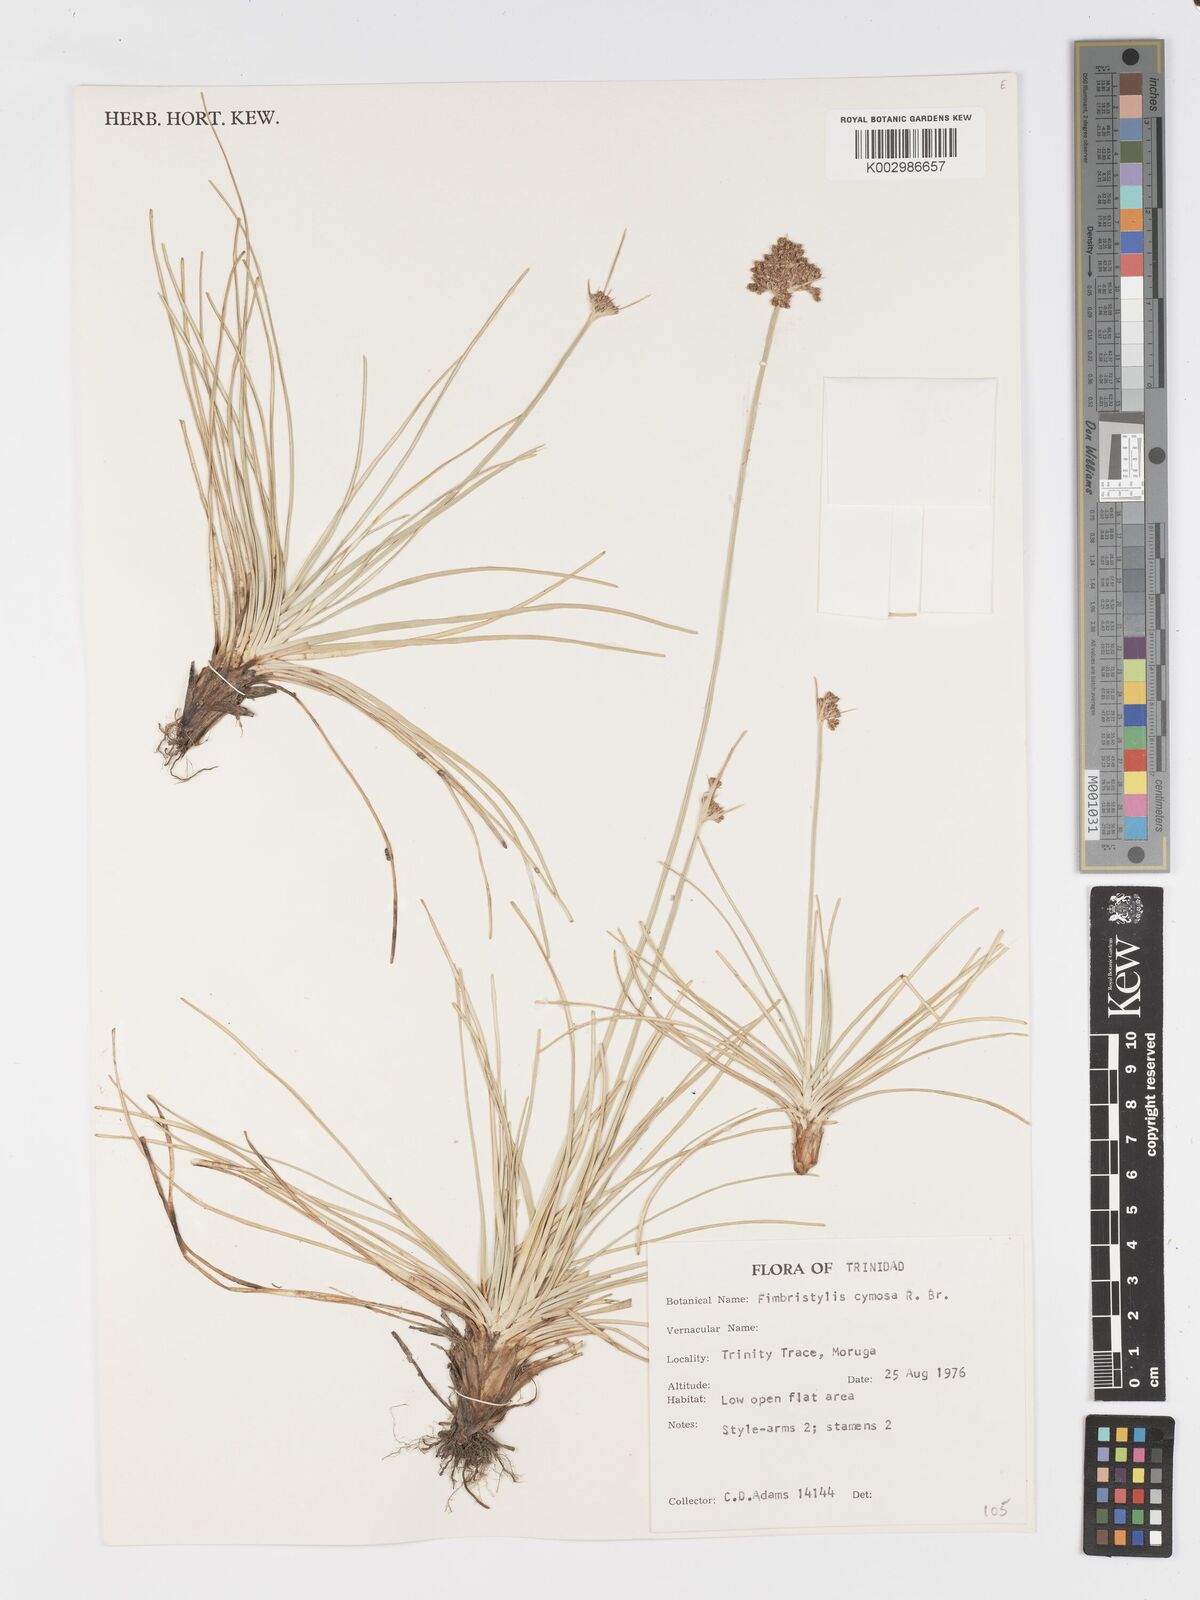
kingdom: Plantae
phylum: Tracheophyta
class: Liliopsida
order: Poales
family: Cyperaceae
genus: Fimbristylis
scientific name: Fimbristylis cymosa
